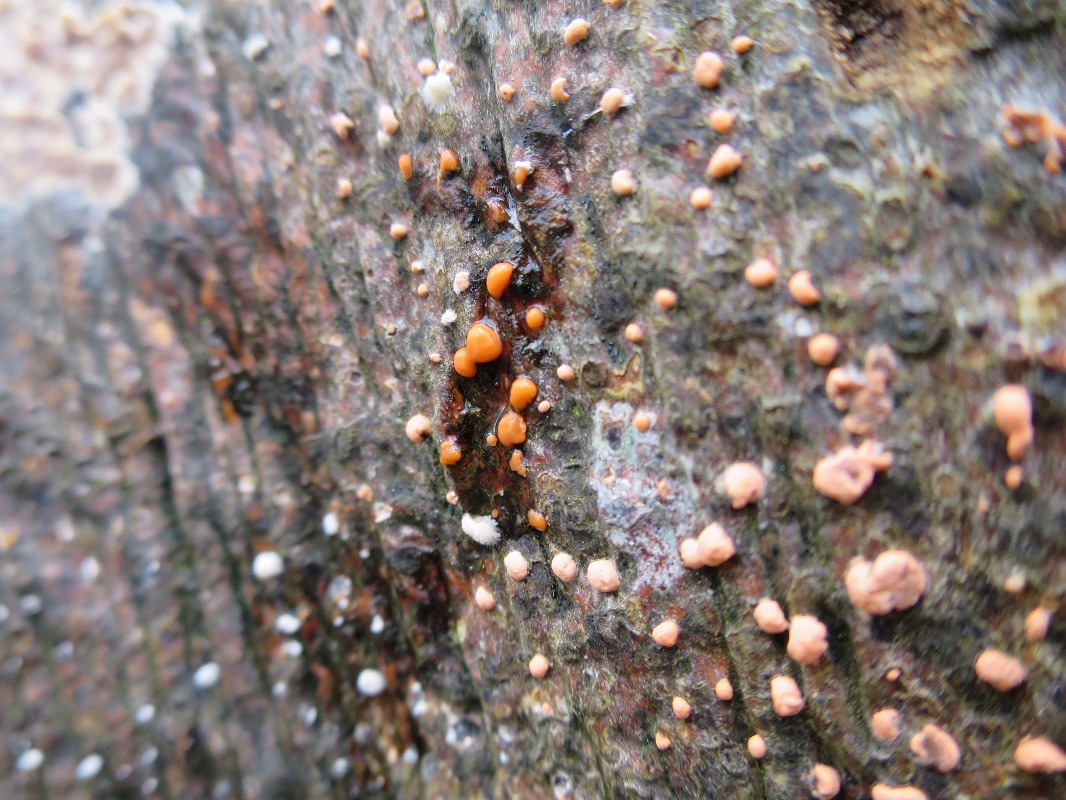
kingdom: Fungi
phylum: Ascomycota
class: Sordariomycetes
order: Hypocreales
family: Nectriaceae
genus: Nectria
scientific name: Nectria cinnabarina
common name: almindelig cinnobersvamp
